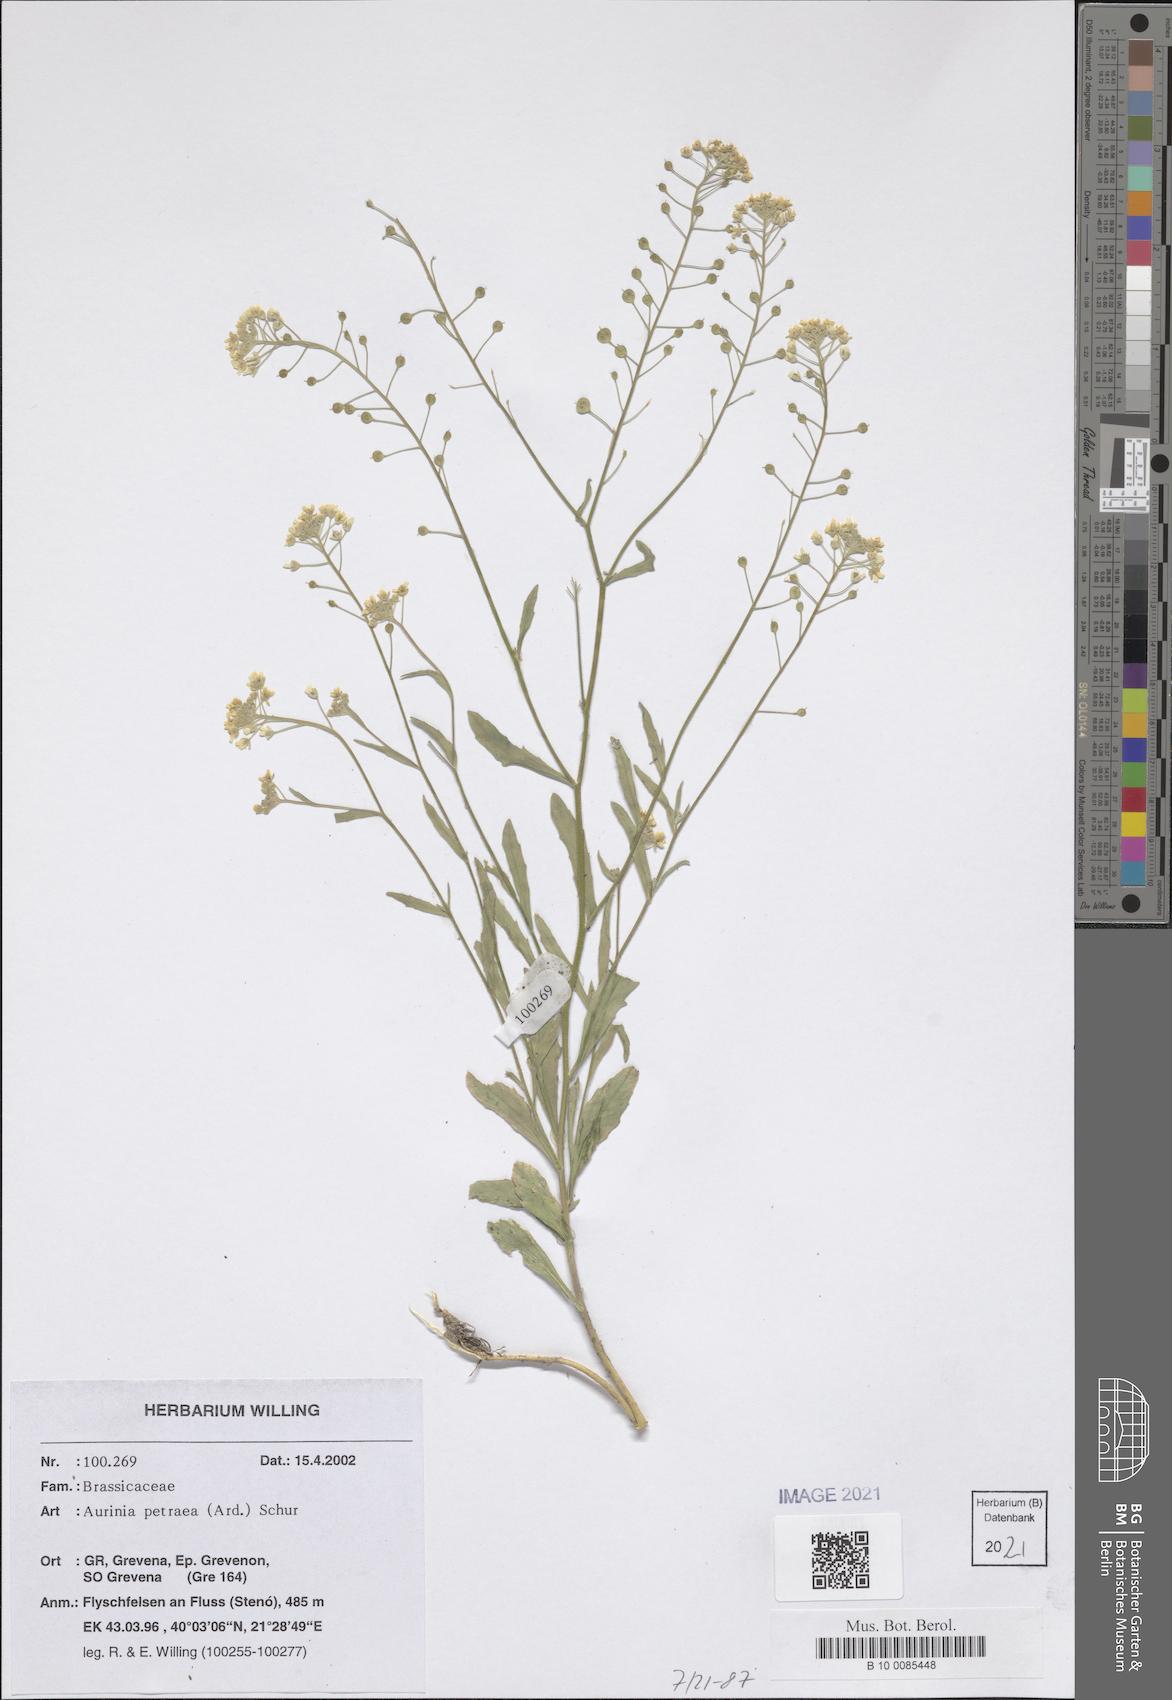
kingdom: Plantae
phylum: Tracheophyta
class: Magnoliopsida
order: Brassicales
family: Brassicaceae
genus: Aurinia
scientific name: Aurinia petraea
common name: Goldentuft
